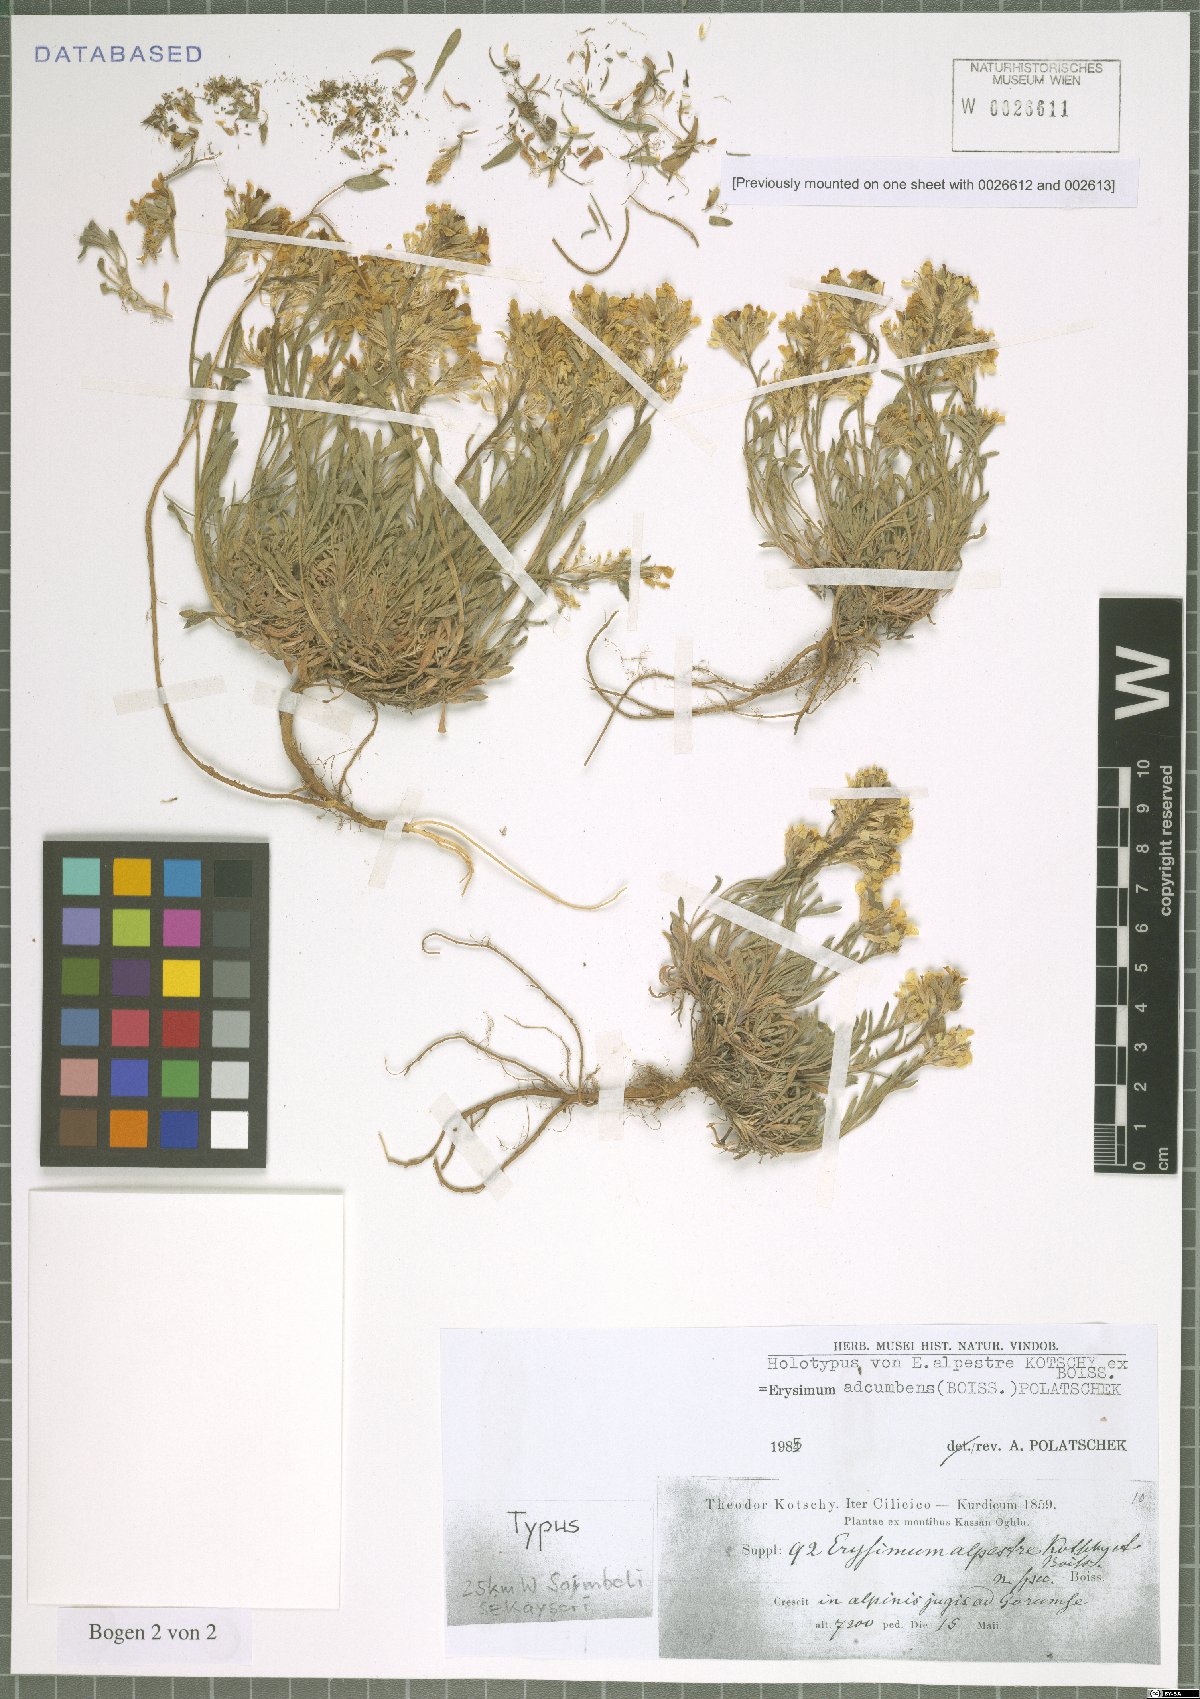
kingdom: Plantae
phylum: Tracheophyta
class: Magnoliopsida
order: Brassicales
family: Brassicaceae
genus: Erysimum
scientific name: Erysimum adcumbens
